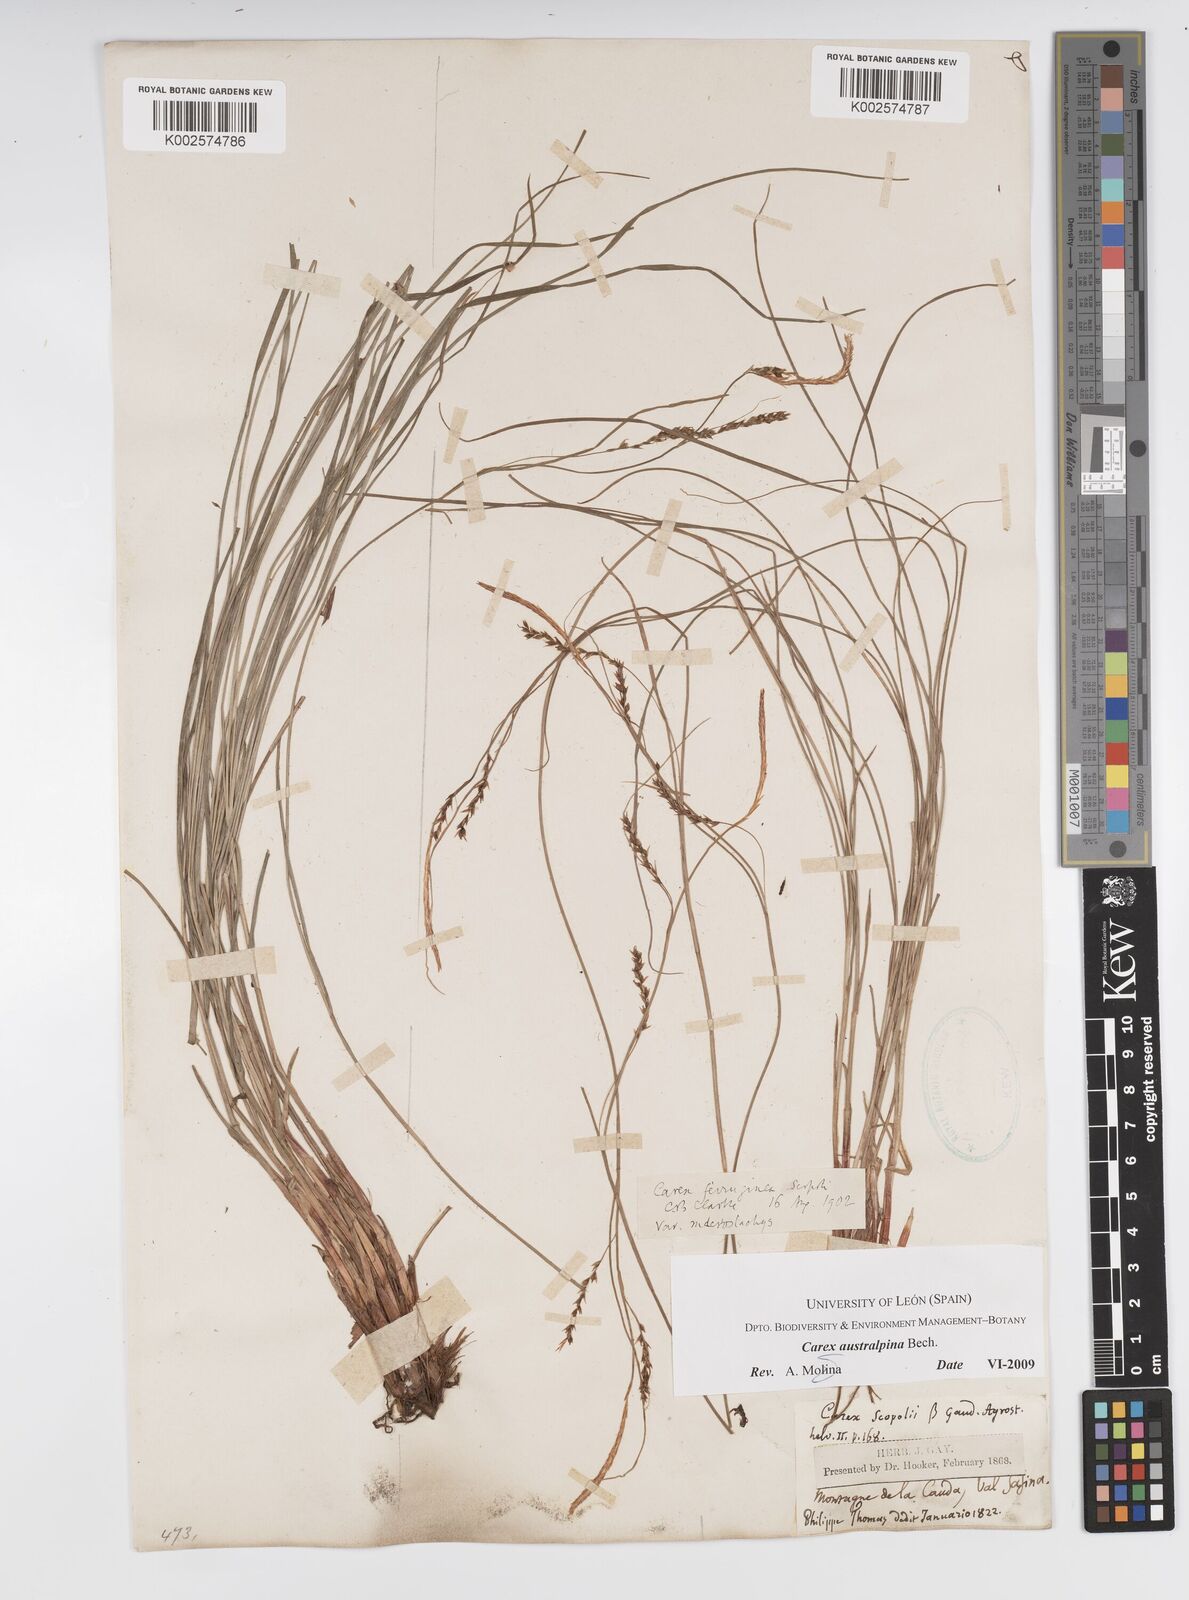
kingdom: Plantae
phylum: Tracheophyta
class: Liliopsida
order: Poales
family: Cyperaceae
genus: Carex
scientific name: Carex austroalpina
